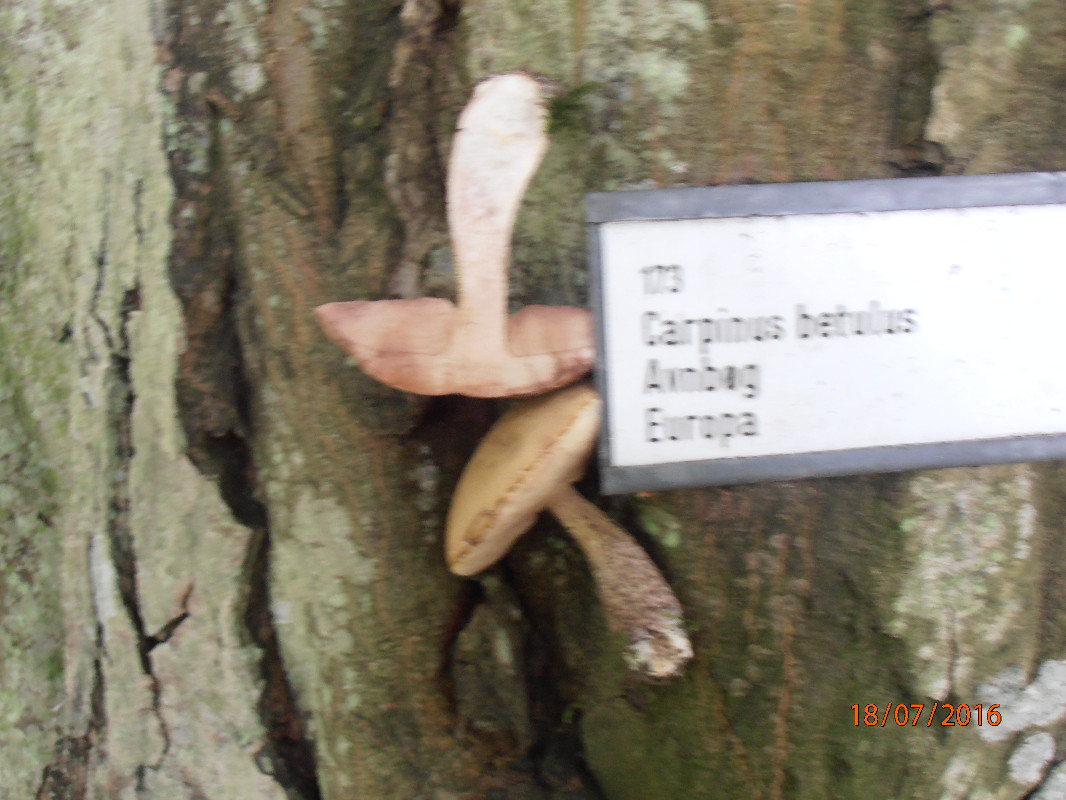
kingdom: Fungi
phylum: Basidiomycota
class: Agaricomycetes
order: Boletales
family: Boletaceae
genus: Leccinellum
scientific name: Leccinellum pseudoscabrum
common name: avnbøg-skælrørhat
